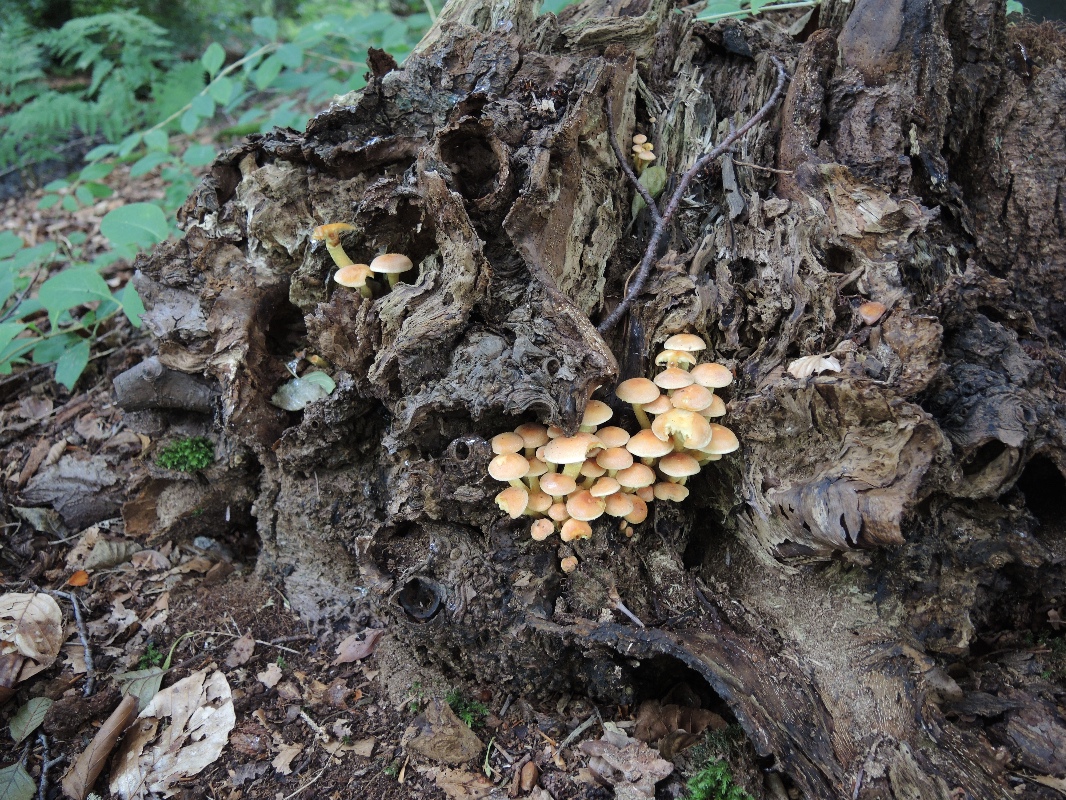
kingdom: Fungi
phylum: Basidiomycota
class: Agaricomycetes
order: Agaricales
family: Strophariaceae
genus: Hypholoma
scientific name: Hypholoma fasciculare
